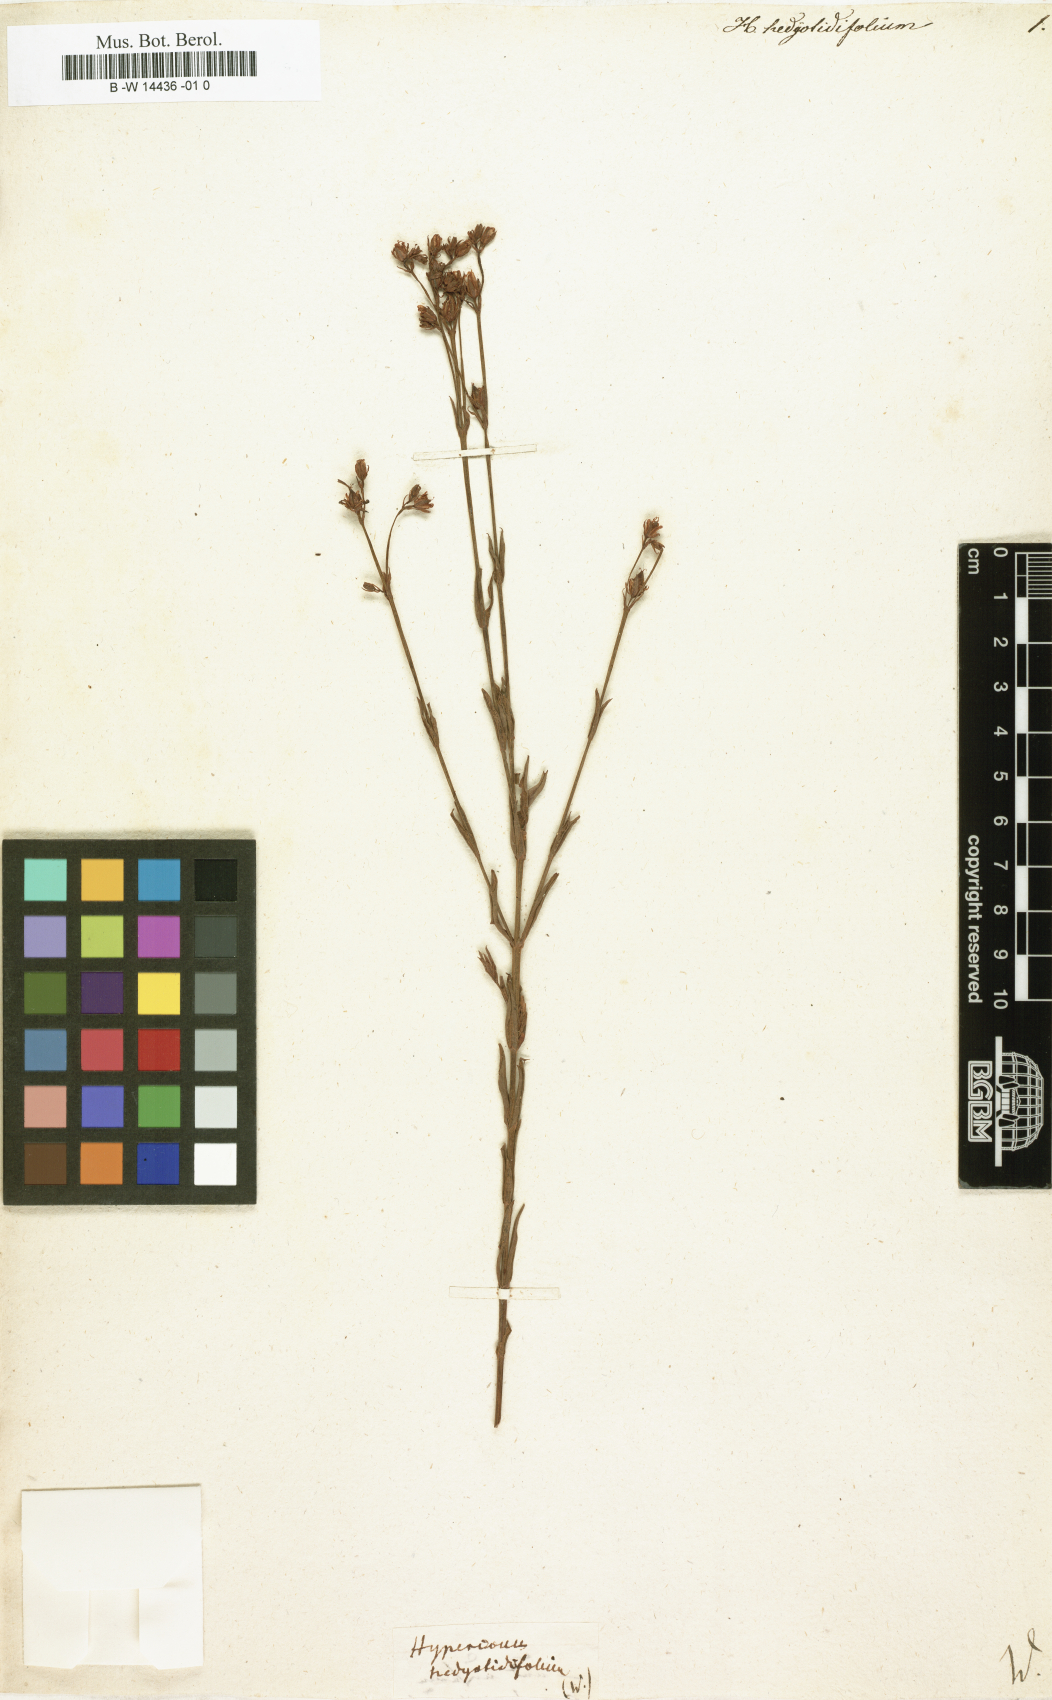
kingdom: Plantae
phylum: Tracheophyta
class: Magnoliopsida
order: Malpighiales
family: Hypericaceae
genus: Hypericum
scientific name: Hypericum canadense
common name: Irish st. john's-wort
